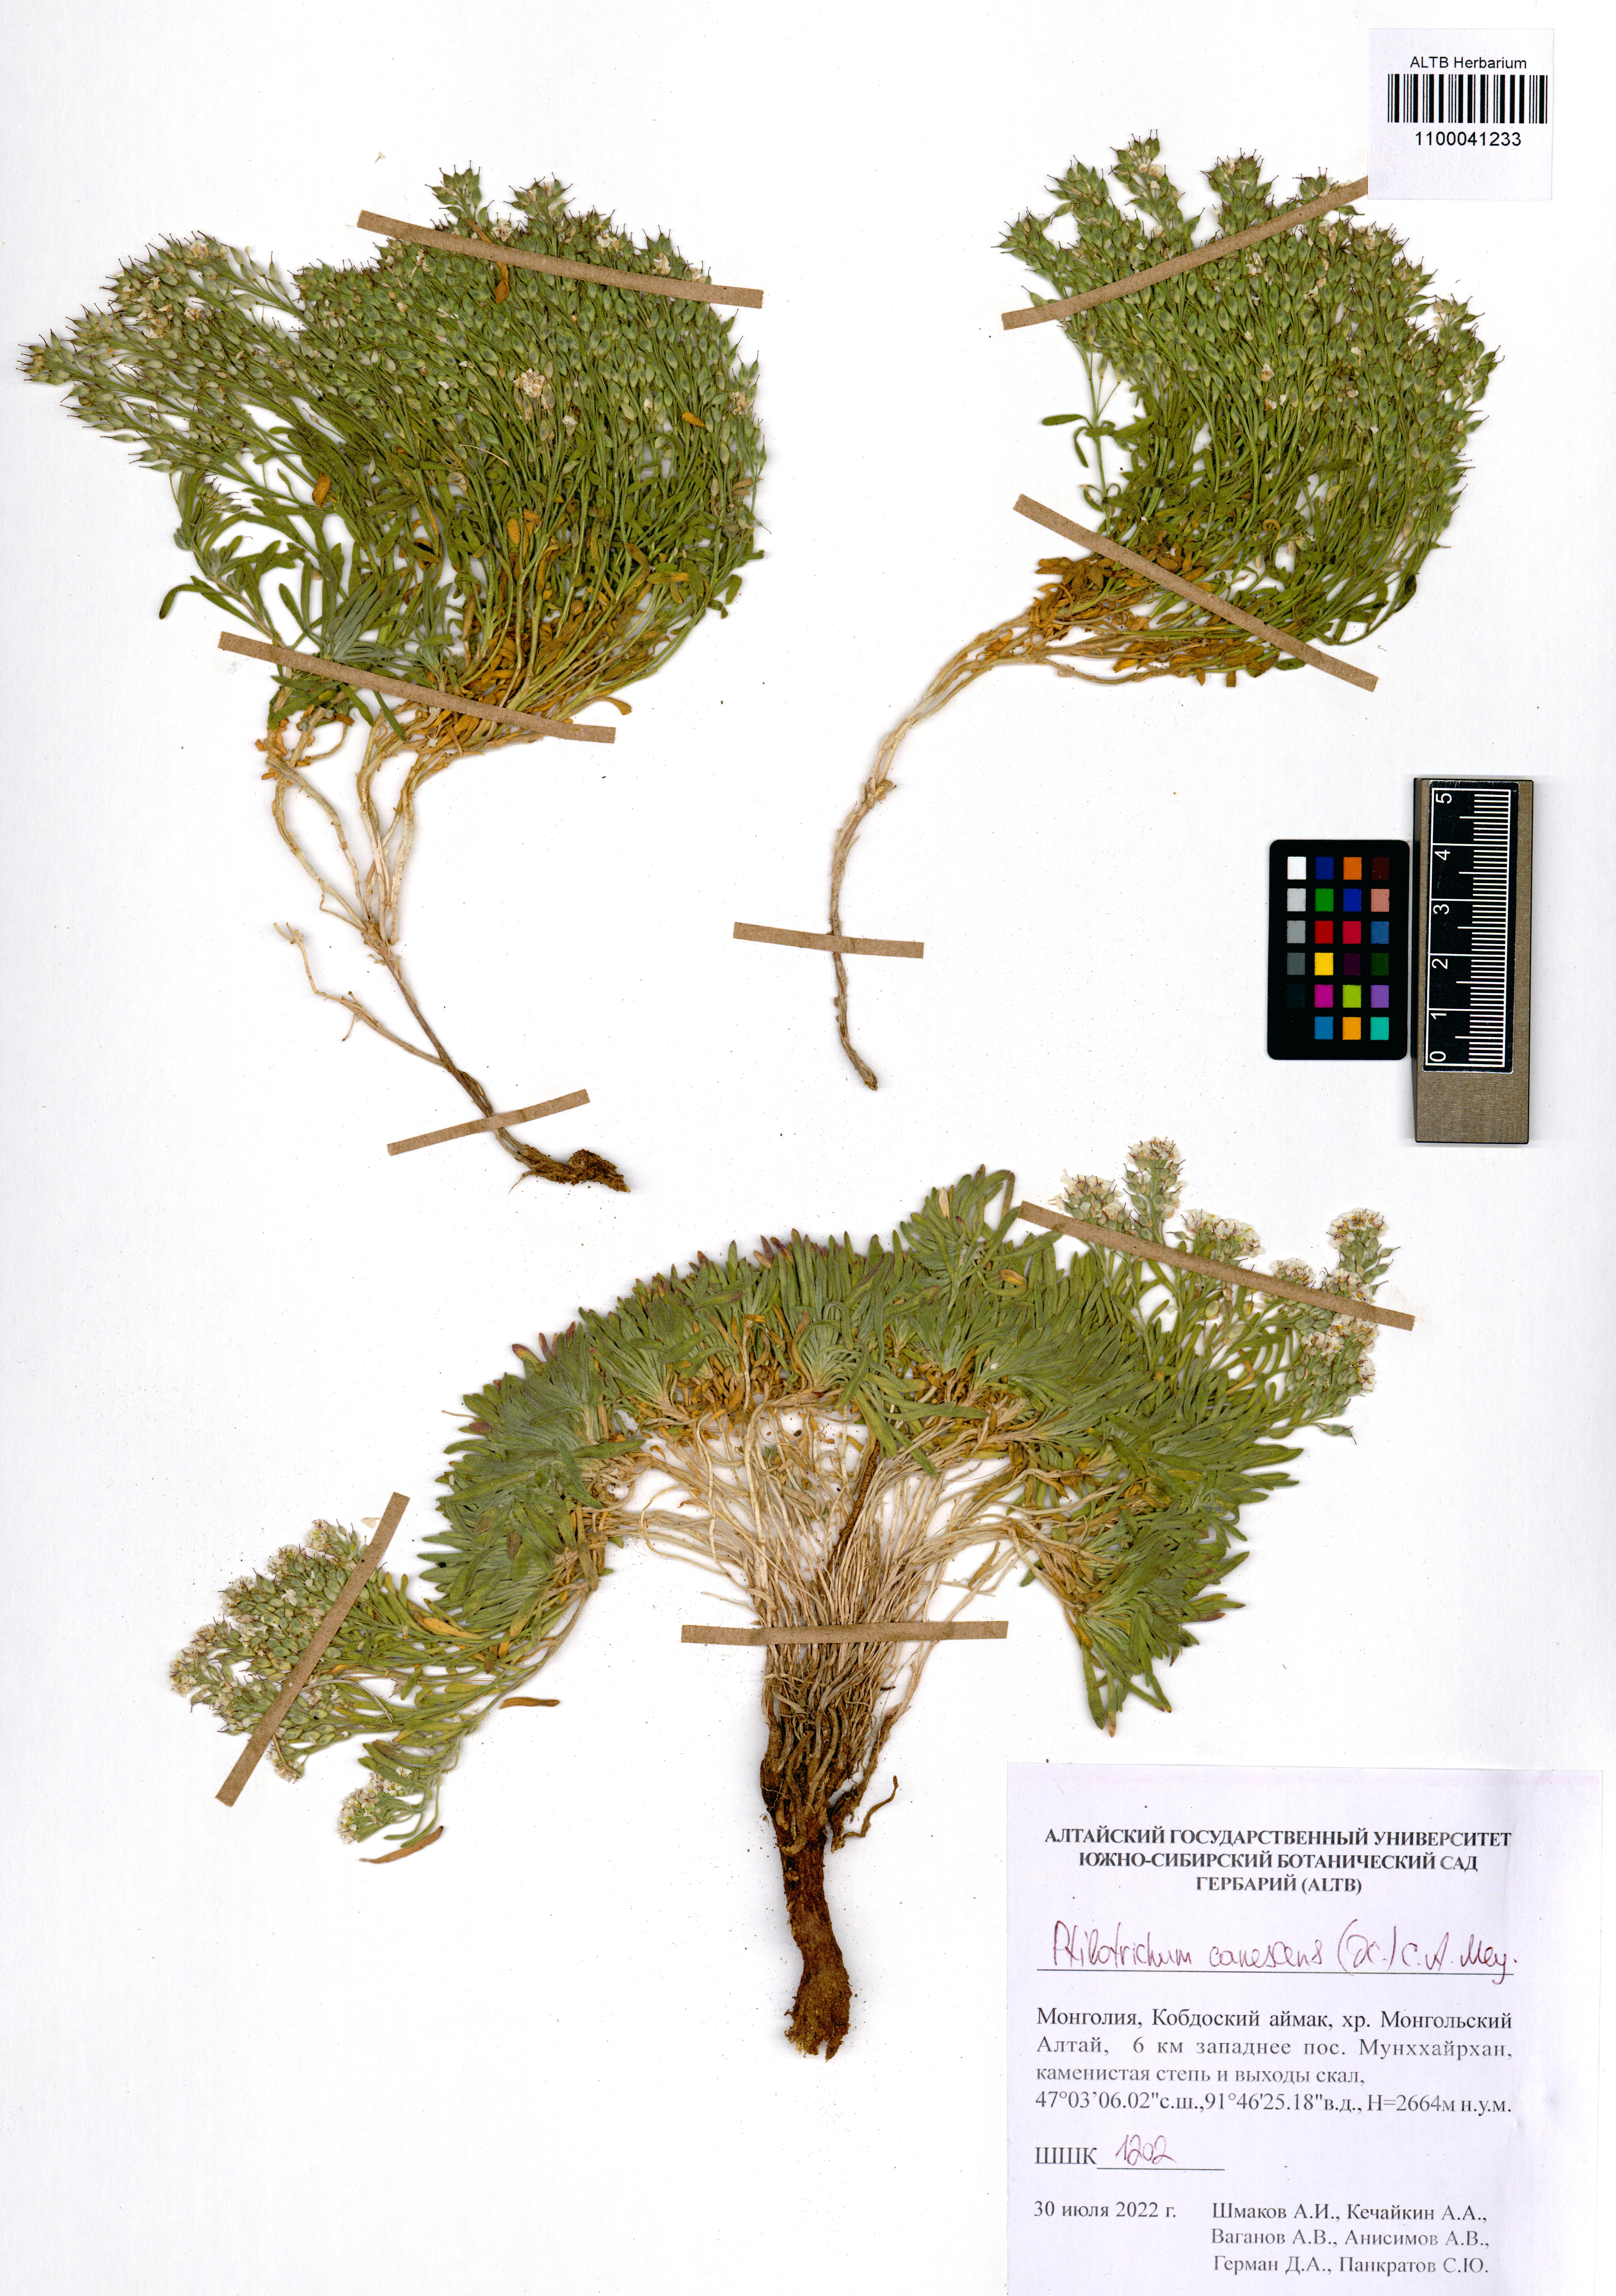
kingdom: Plantae
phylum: Tracheophyta
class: Magnoliopsida
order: Brassicales
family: Brassicaceae
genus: Stevenia
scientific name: Stevenia canescens
